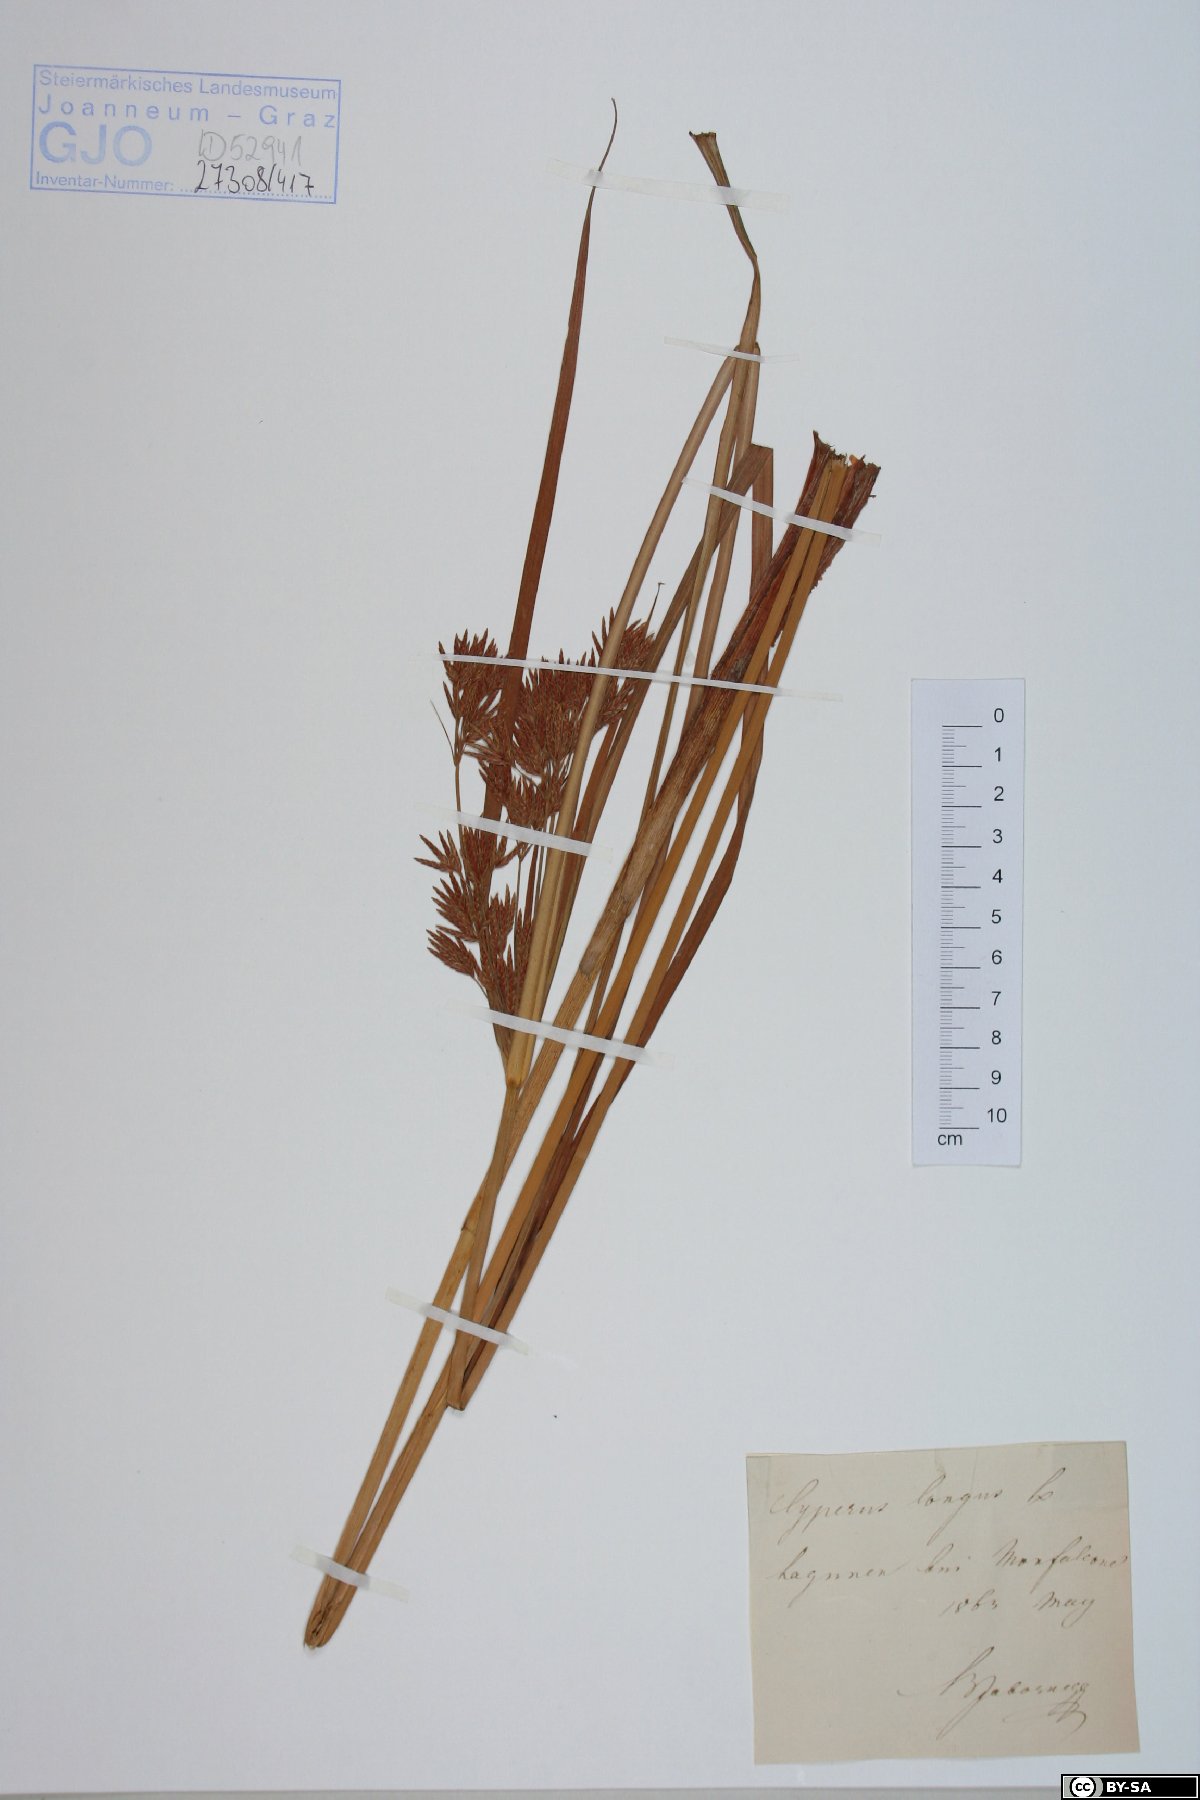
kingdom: Plantae
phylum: Tracheophyta
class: Liliopsida
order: Poales
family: Cyperaceae
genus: Cyperus
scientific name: Cyperus longus
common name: Galingale
